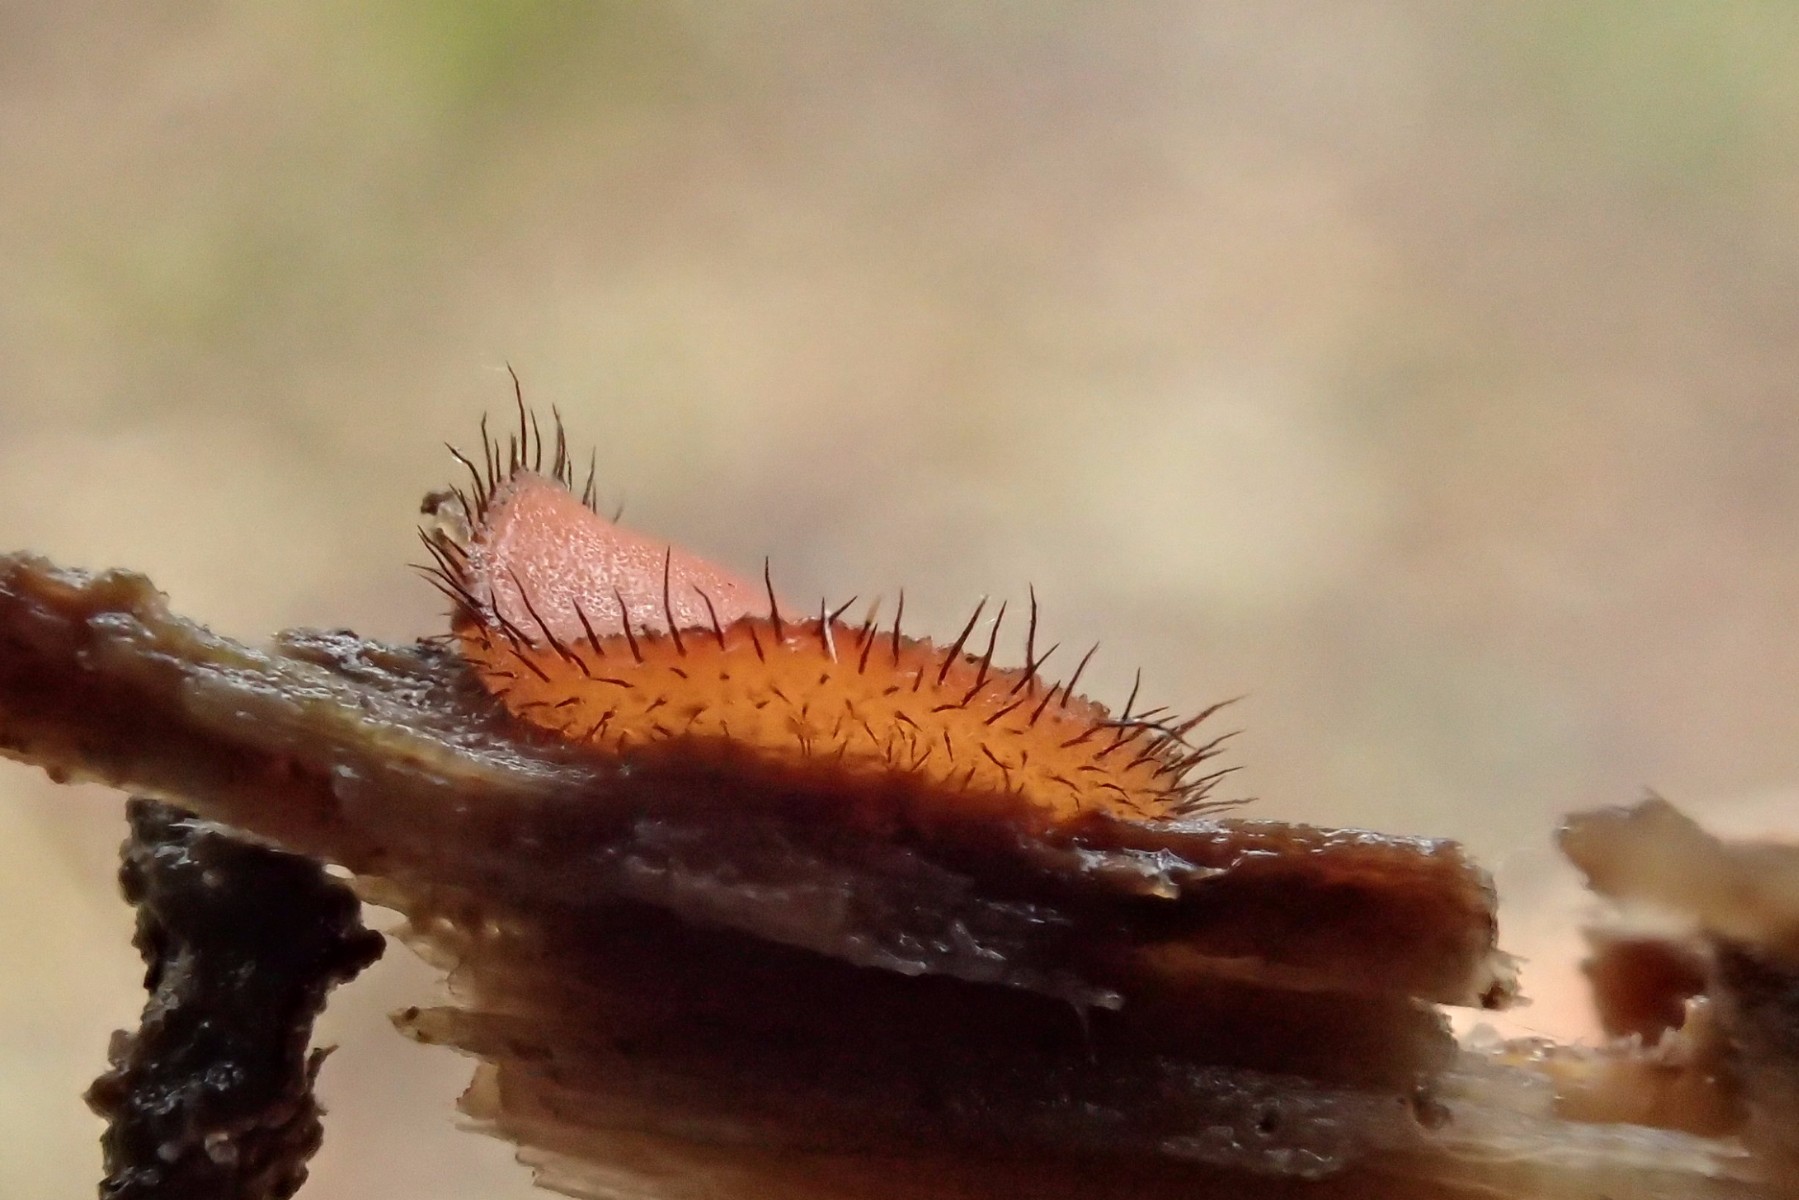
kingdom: Fungi
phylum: Ascomycota
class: Pezizomycetes
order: Pezizales
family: Pyronemataceae
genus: Scutellinia
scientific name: Scutellinia scutellata
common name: frynset skjoldbæger
